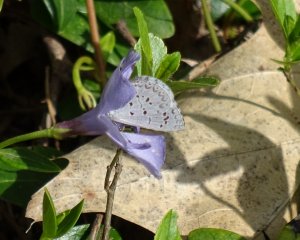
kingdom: Animalia
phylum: Arthropoda
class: Insecta
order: Lepidoptera
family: Lycaenidae
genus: Celastrina
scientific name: Celastrina
